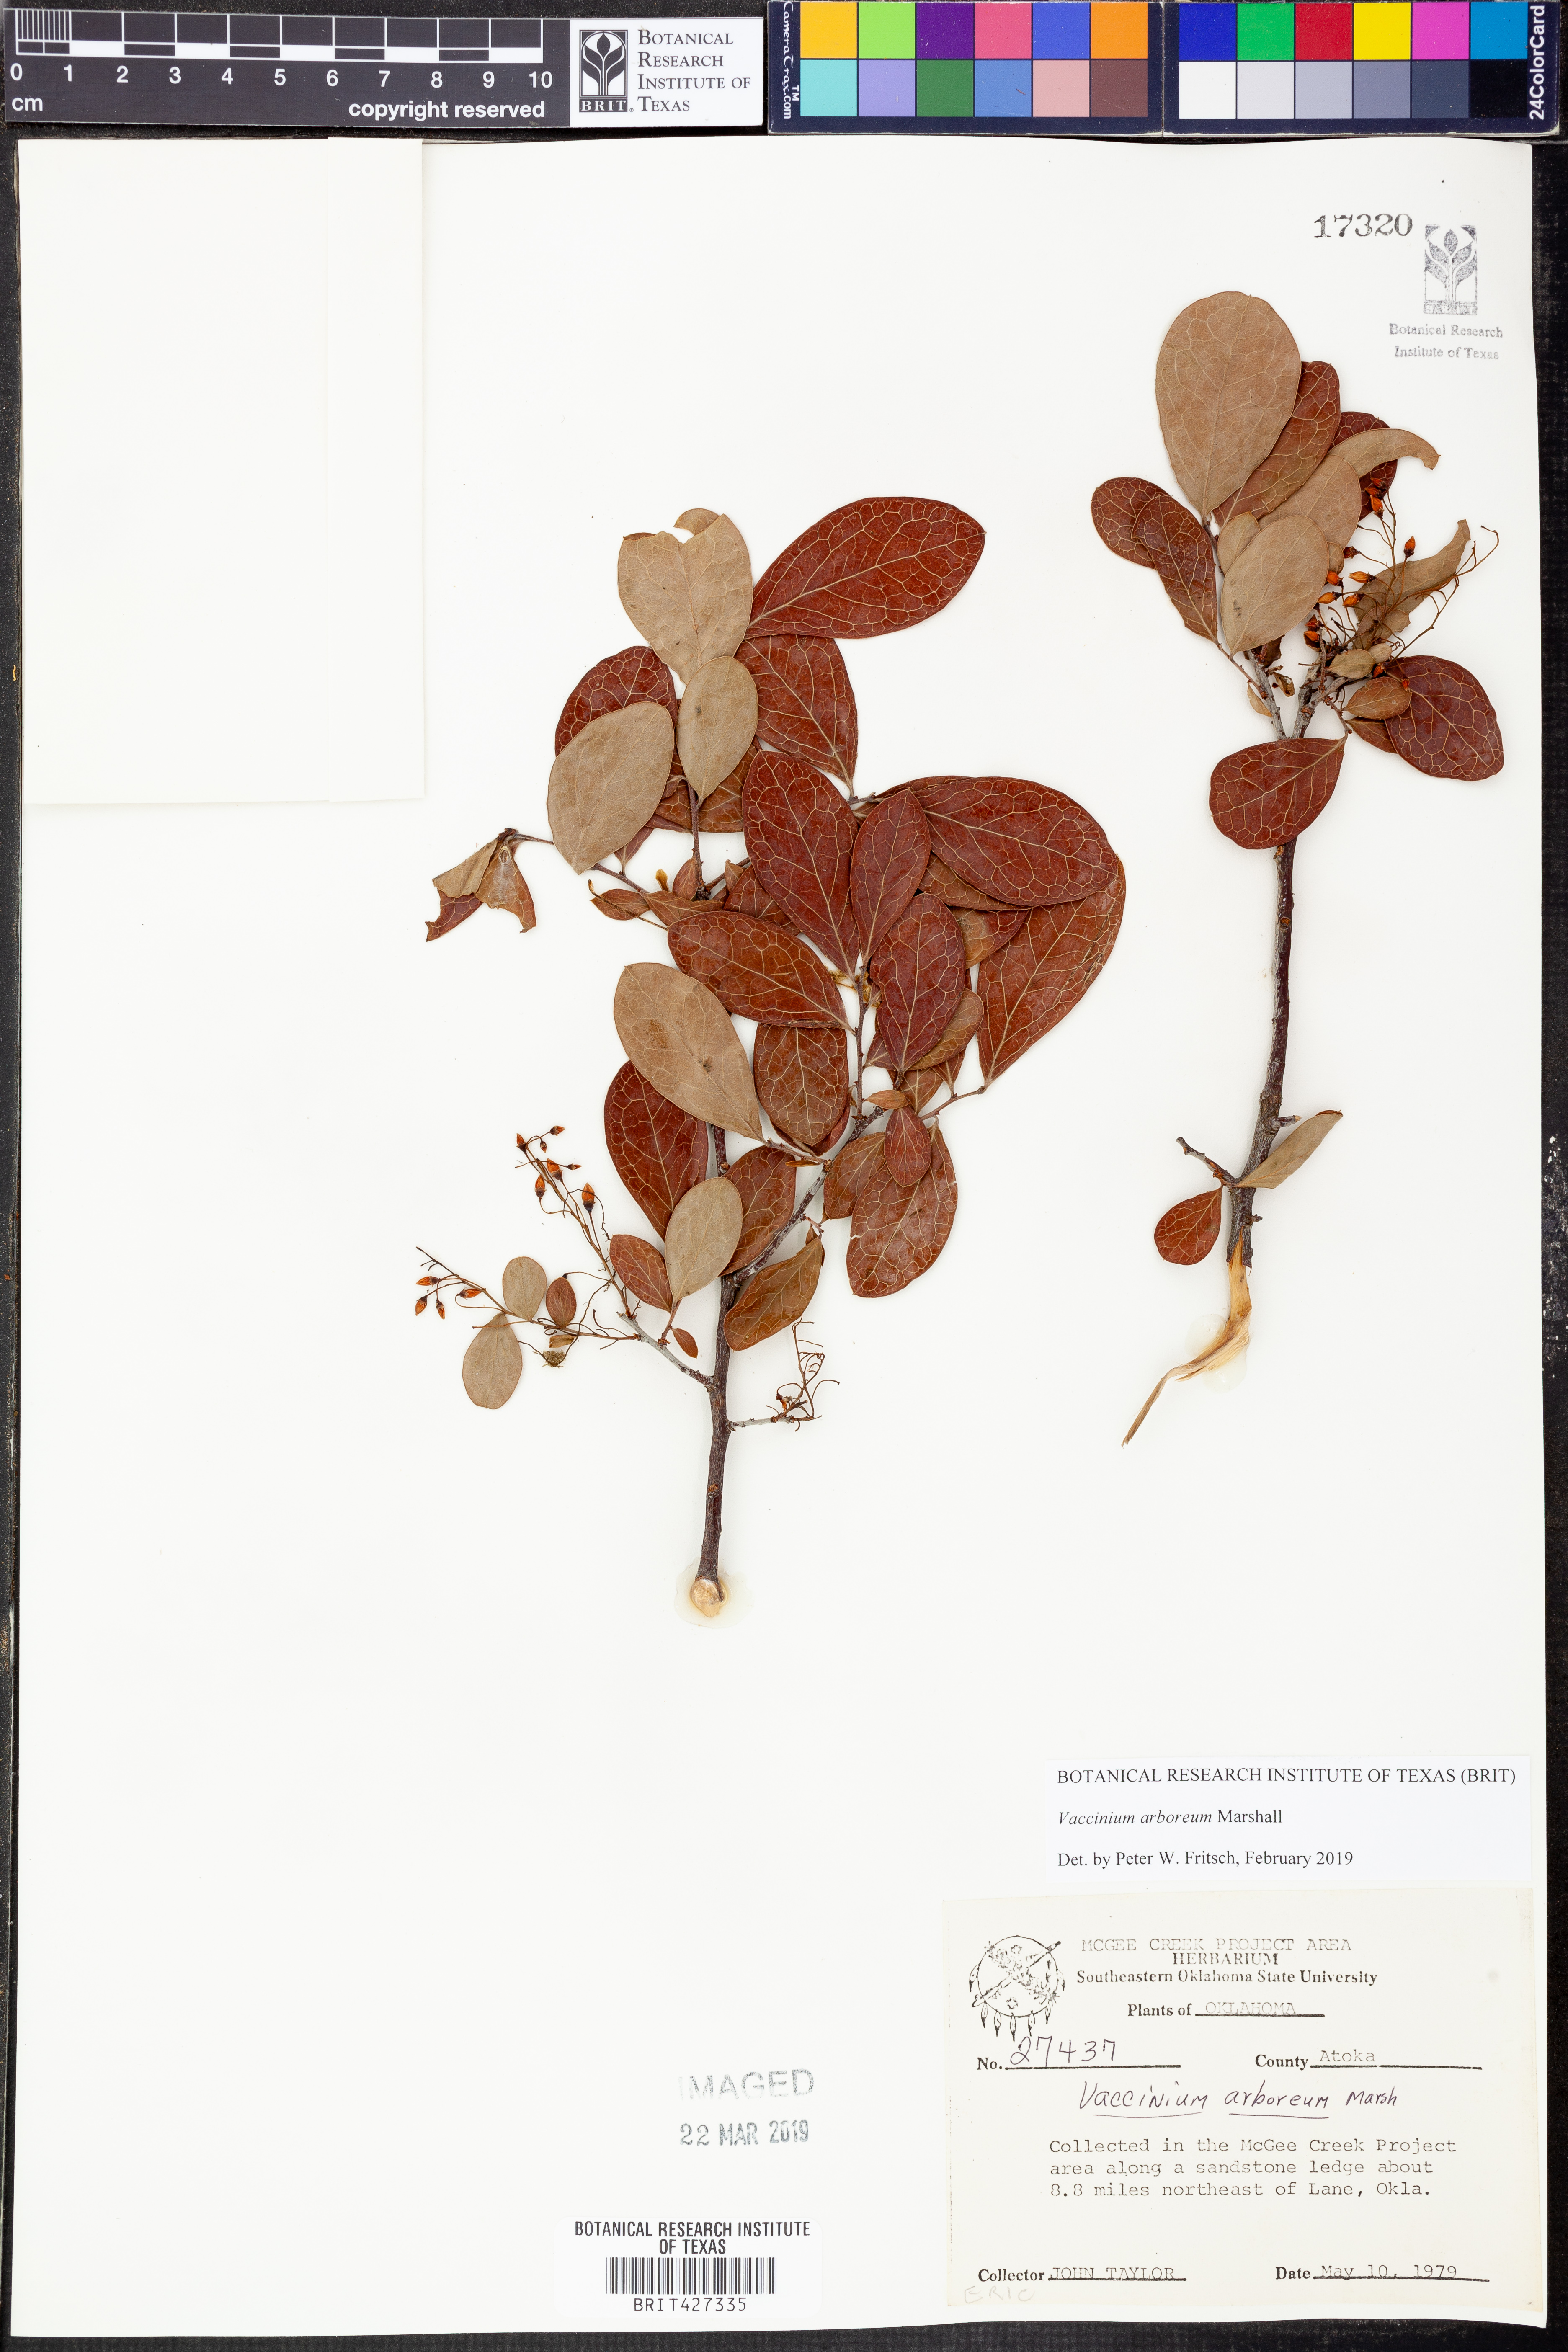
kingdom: Plantae
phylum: Tracheophyta
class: Magnoliopsida
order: Ericales
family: Ericaceae
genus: Vaccinium
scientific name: Vaccinium arboreum
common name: Farkleberry
